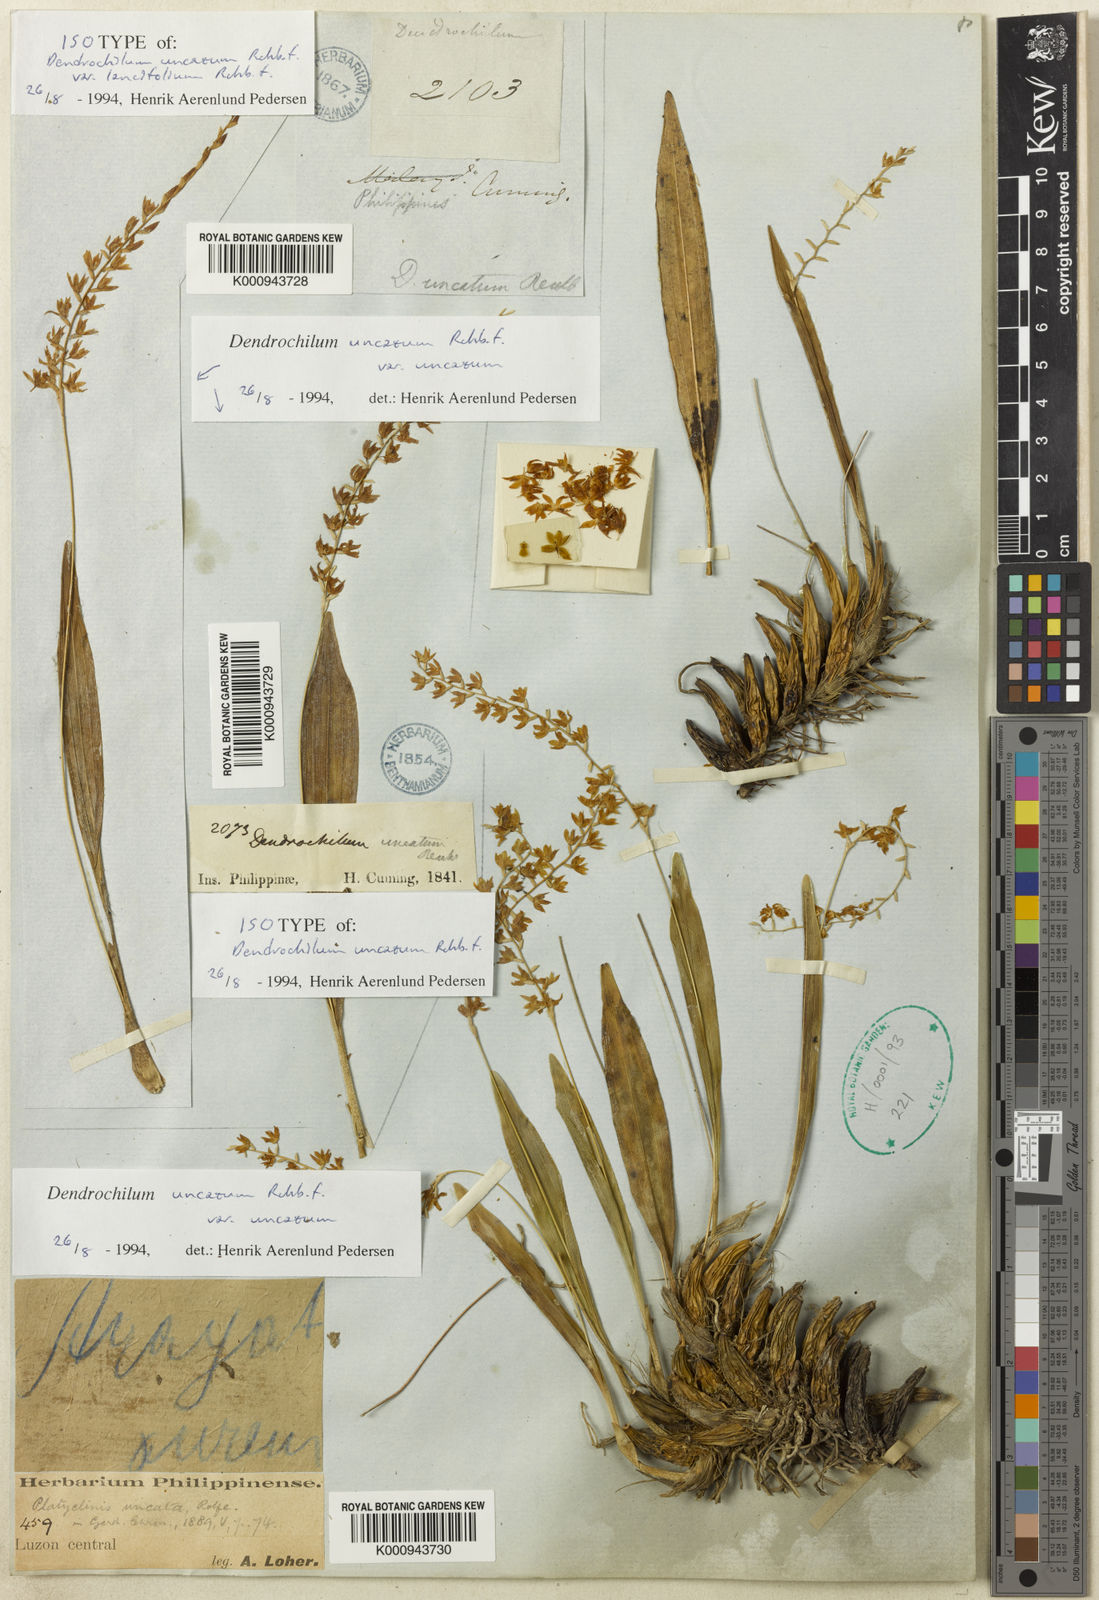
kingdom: Plantae
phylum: Tracheophyta
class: Liliopsida
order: Asparagales
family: Orchidaceae
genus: Coelogyne
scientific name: Coelogyne uncata
